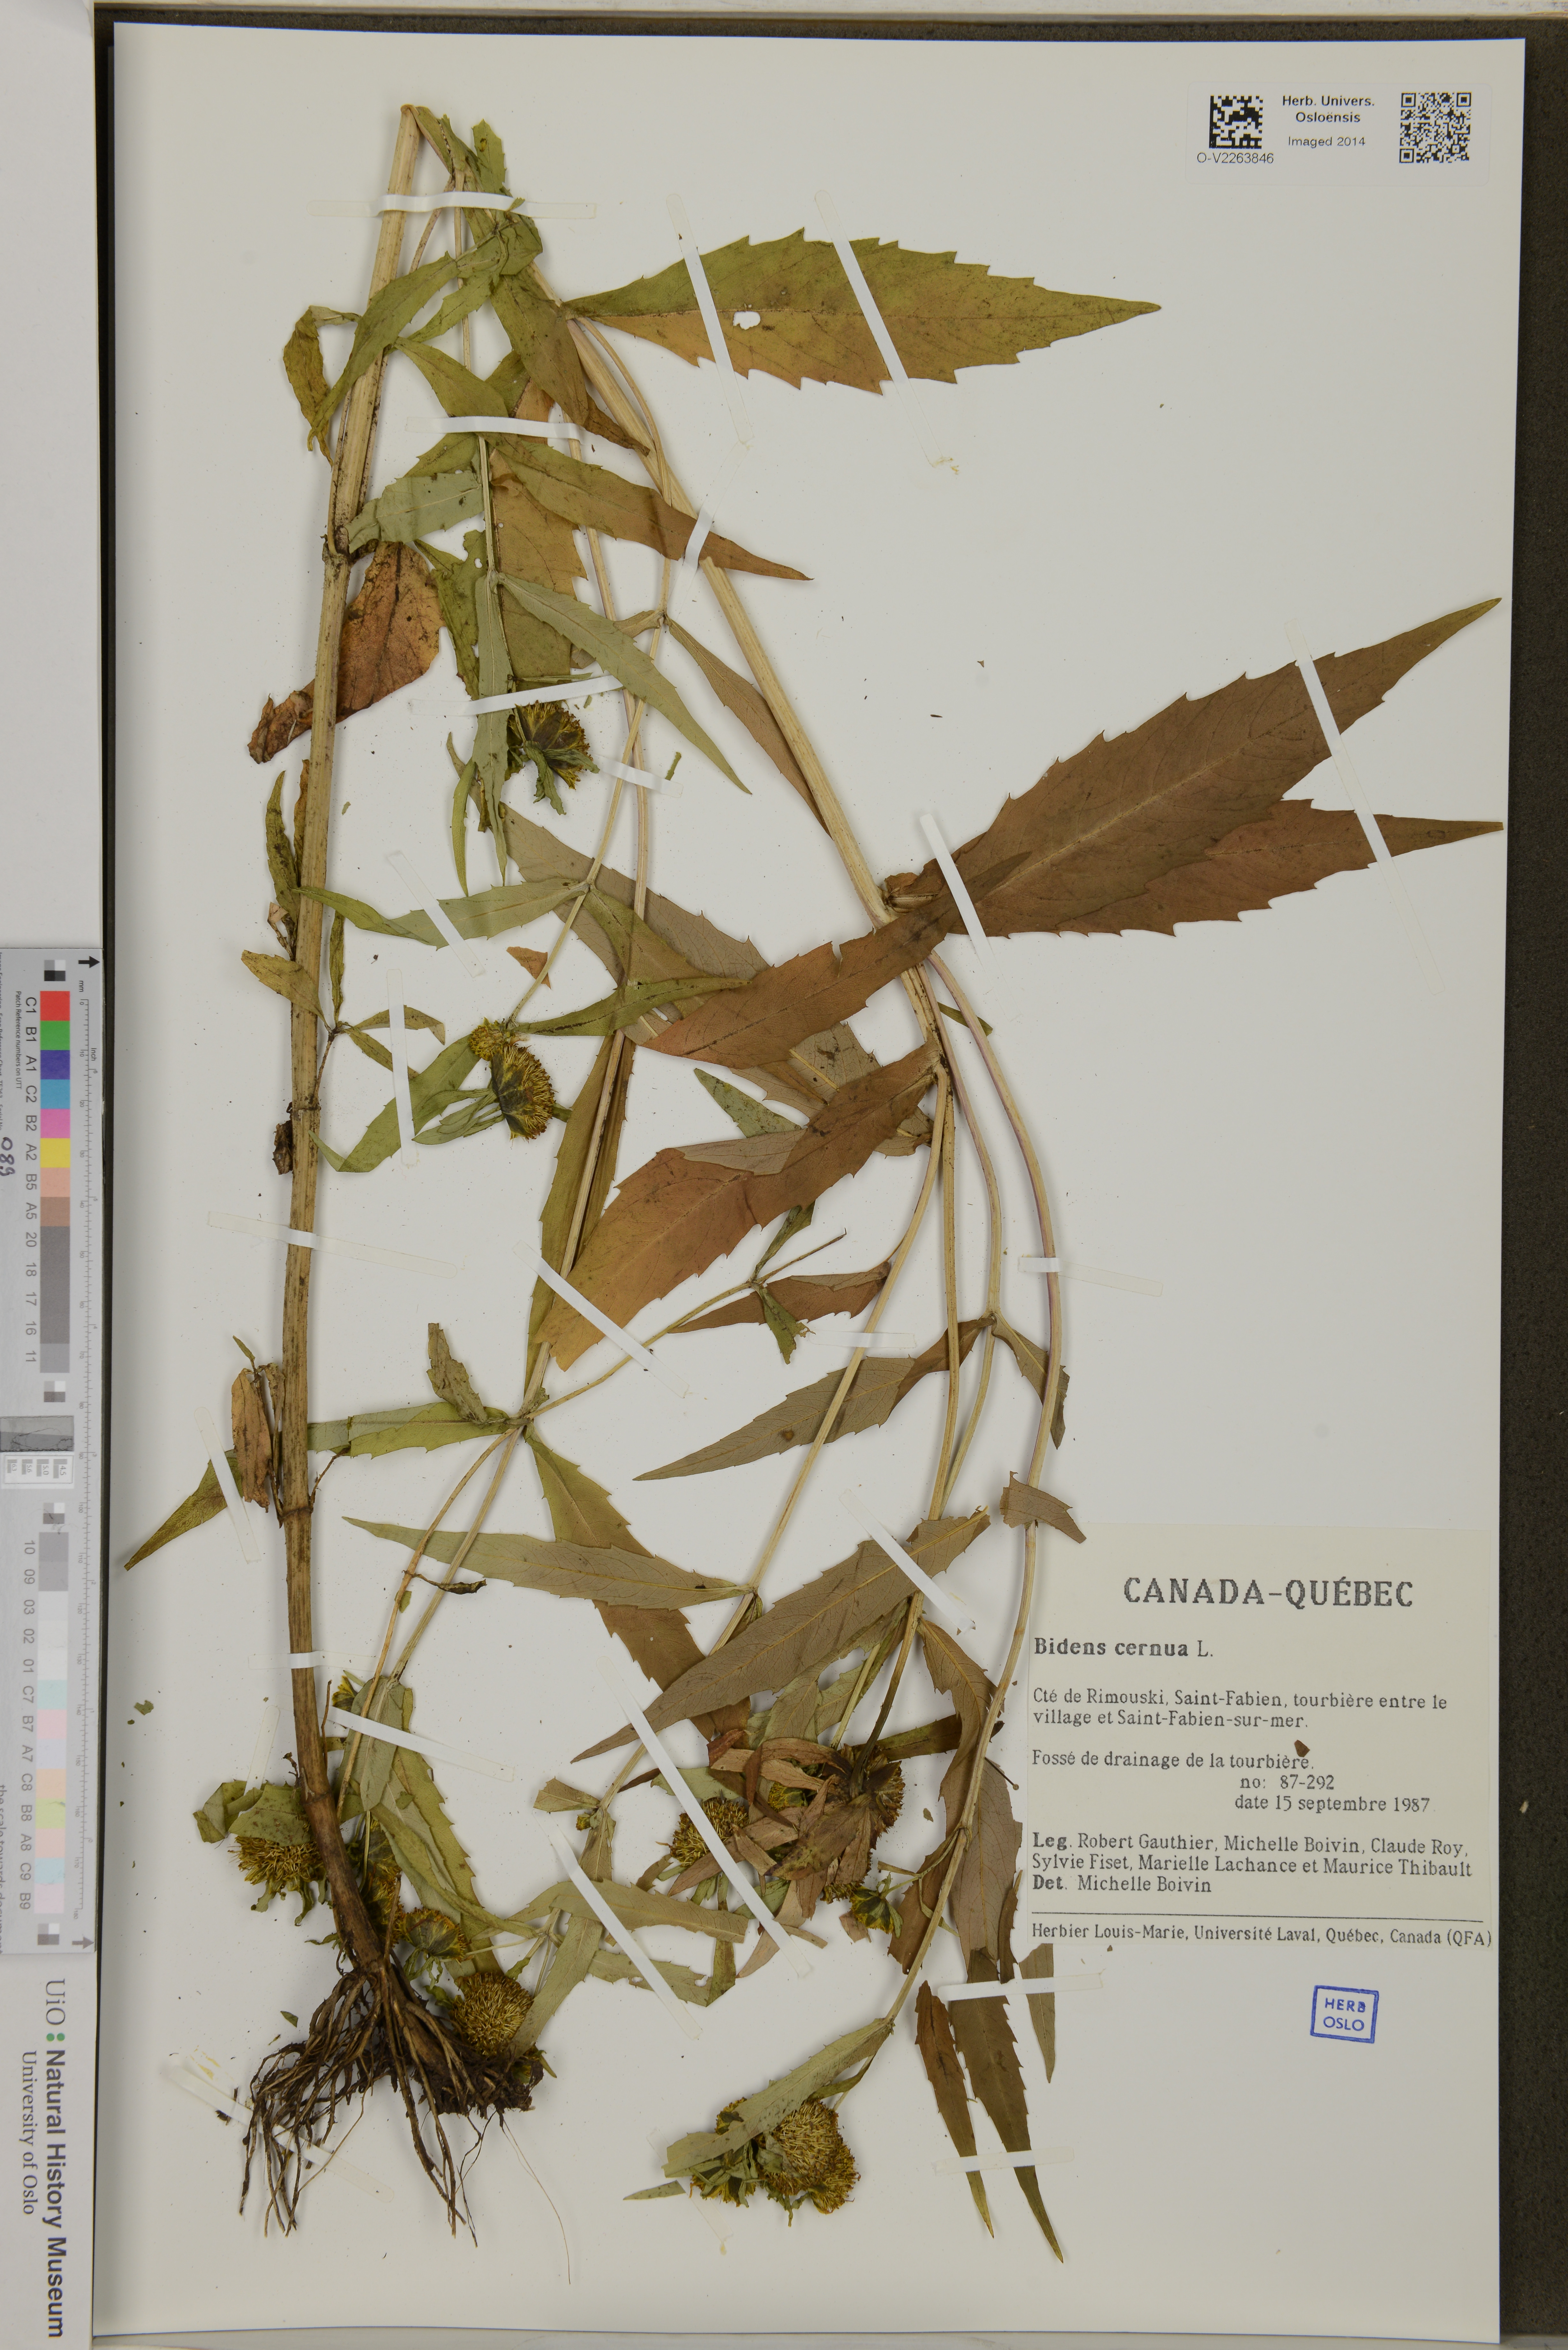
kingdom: Plantae
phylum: Tracheophyta
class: Magnoliopsida
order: Asterales
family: Asteraceae
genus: Bidens
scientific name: Bidens cernua
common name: Nodding bur-marigold
